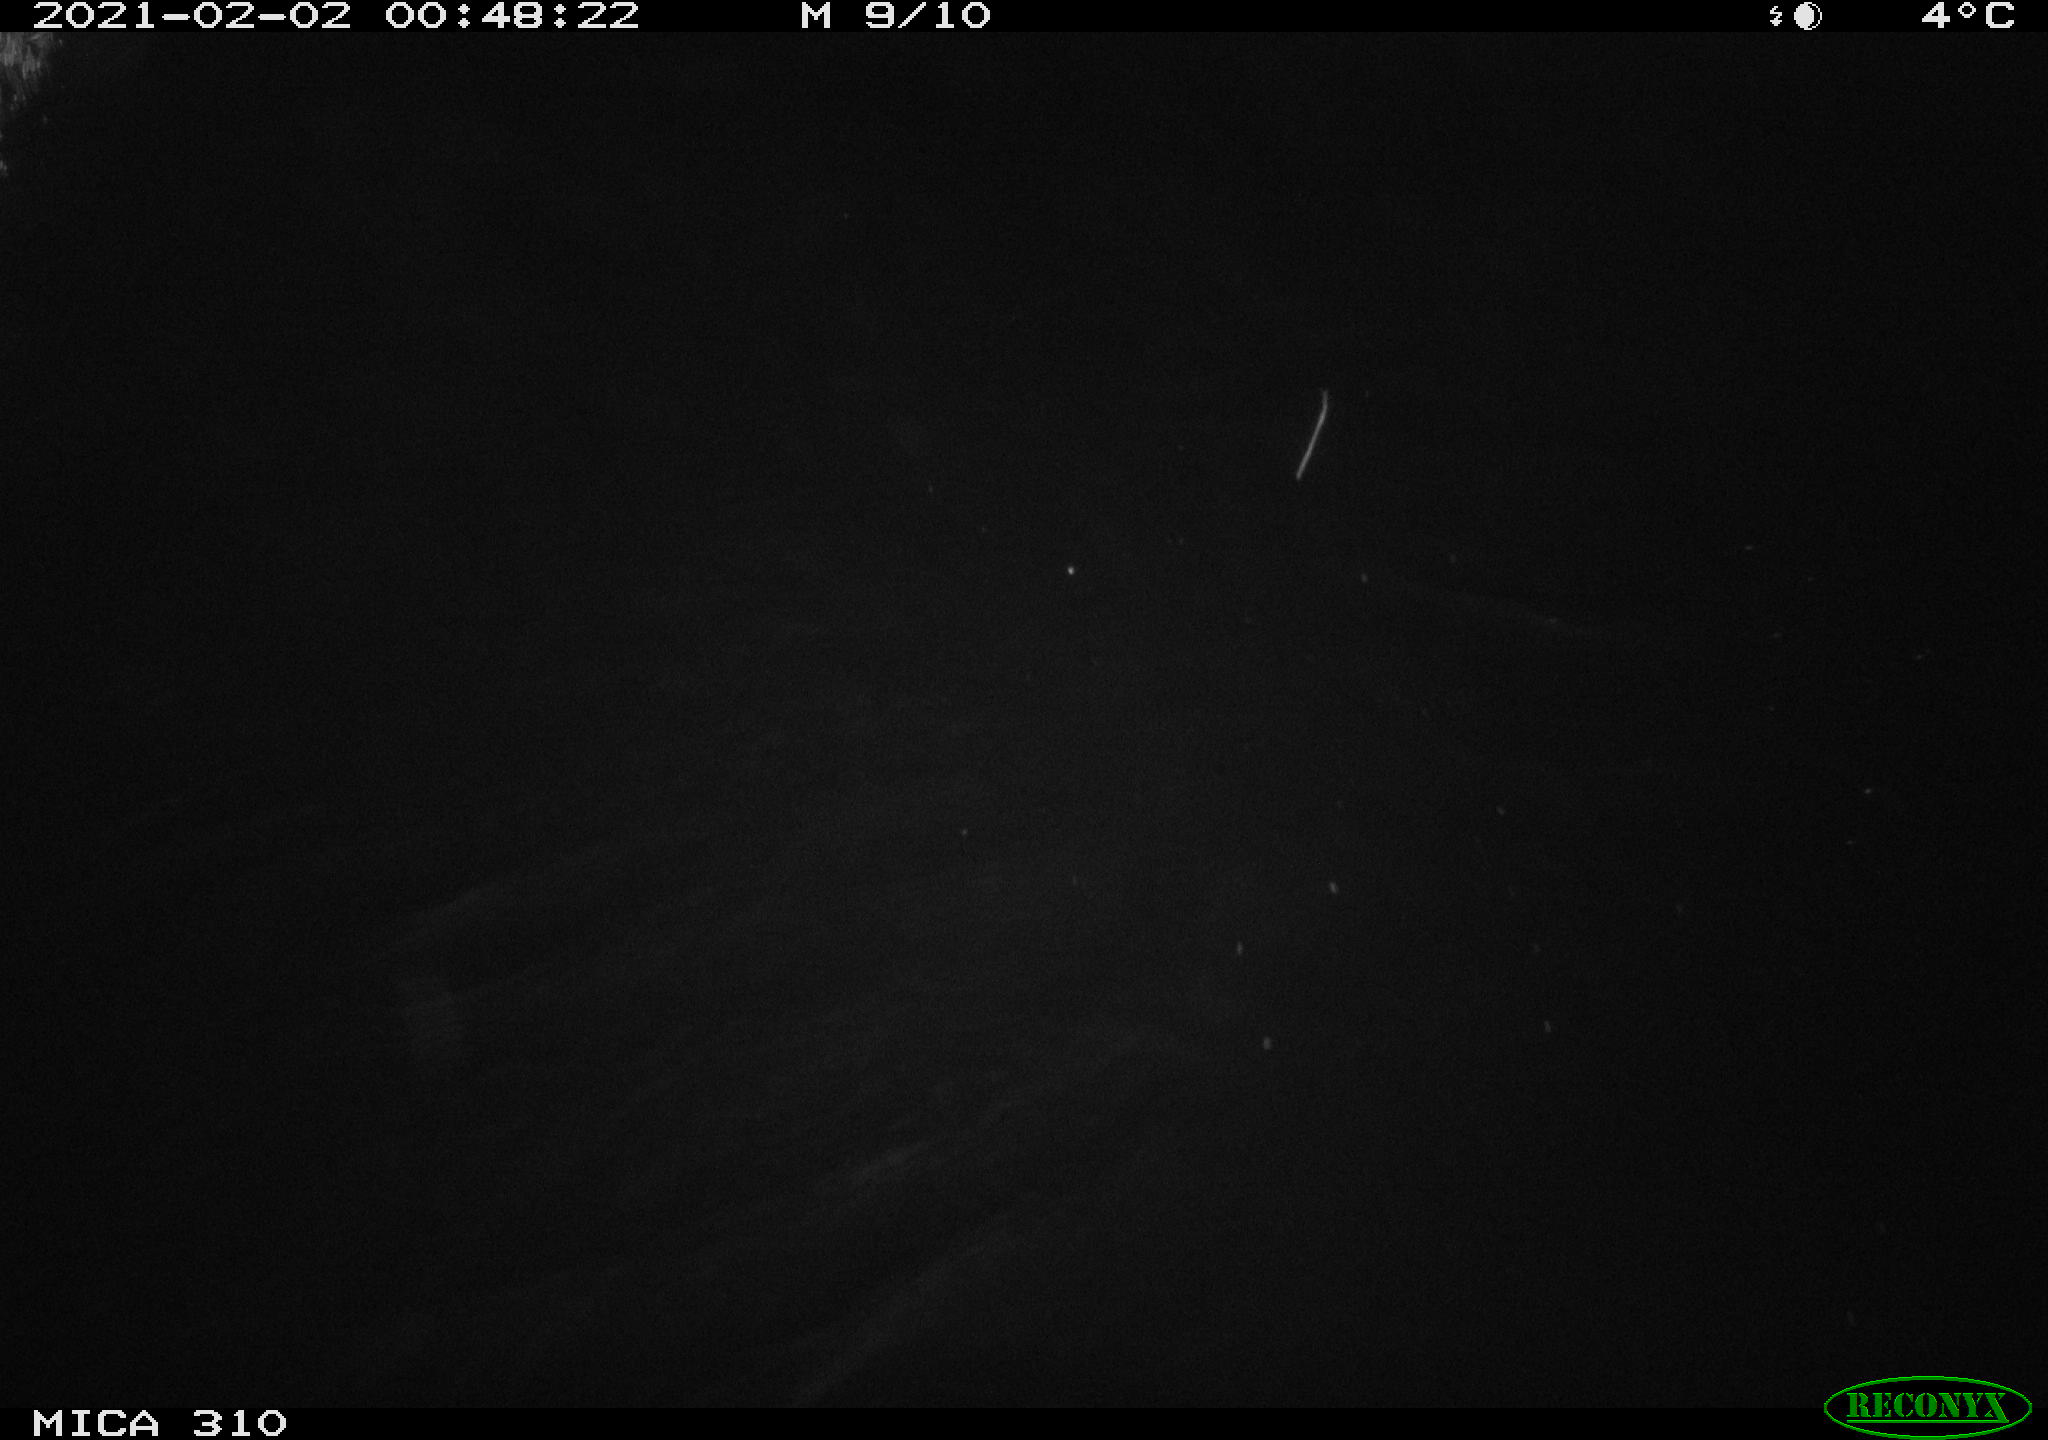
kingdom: Animalia
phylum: Chordata
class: Mammalia
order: Rodentia
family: Cricetidae
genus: Ondatra
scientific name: Ondatra zibethicus
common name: Muskrat
